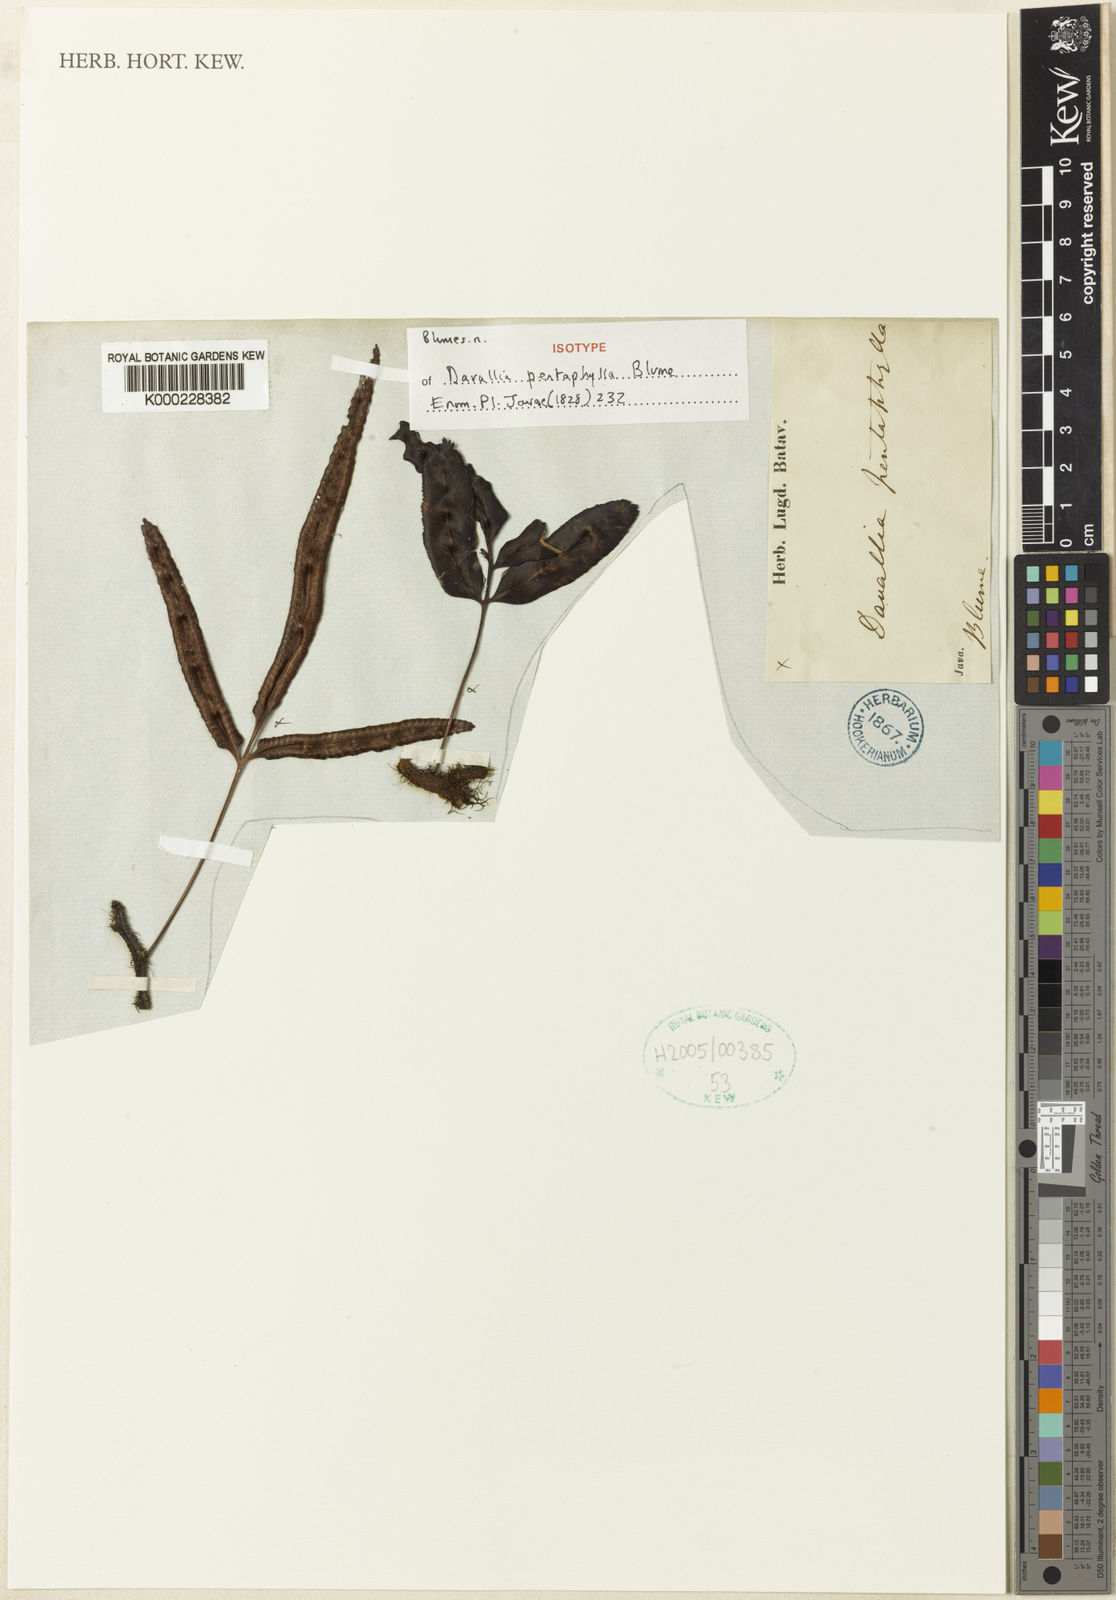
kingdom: Plantae
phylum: Tracheophyta
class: Polypodiopsida
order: Polypodiales
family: Davalliaceae
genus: Davallia
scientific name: Davallia
